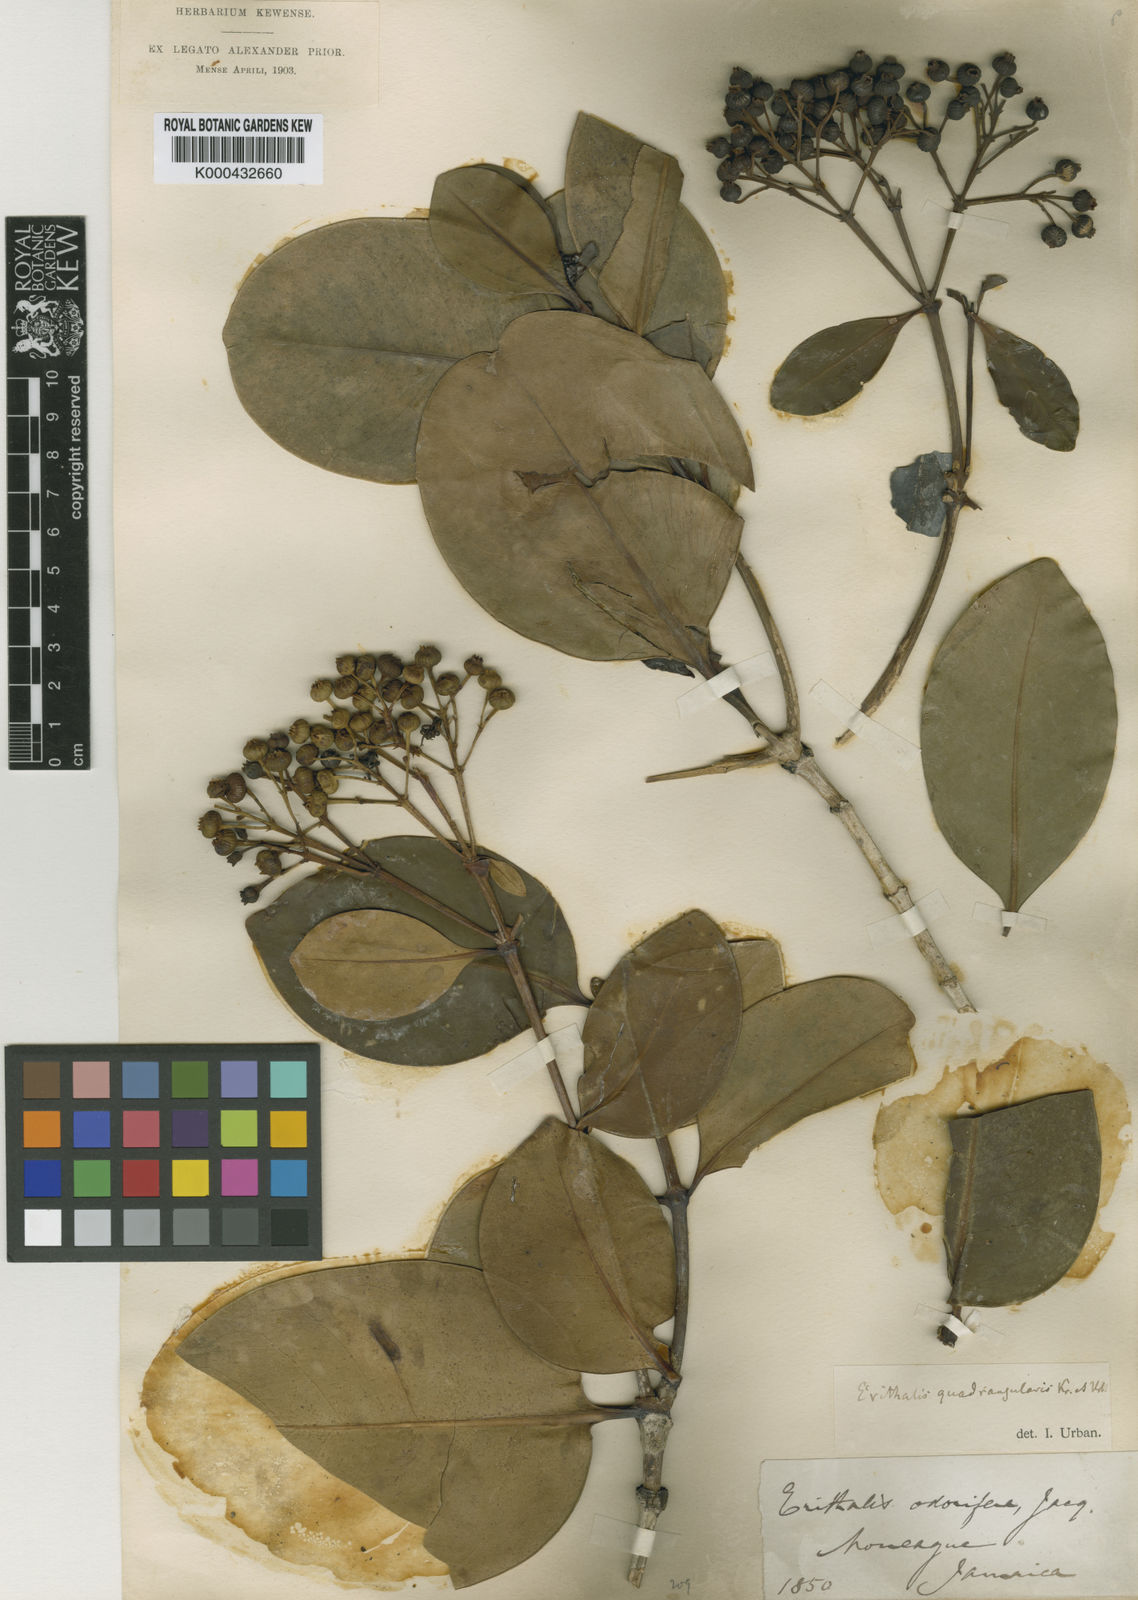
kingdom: Plantae
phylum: Tracheophyta
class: Magnoliopsida
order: Gentianales
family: Rubiaceae
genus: Erithalis
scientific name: Erithalis quadrangularis
